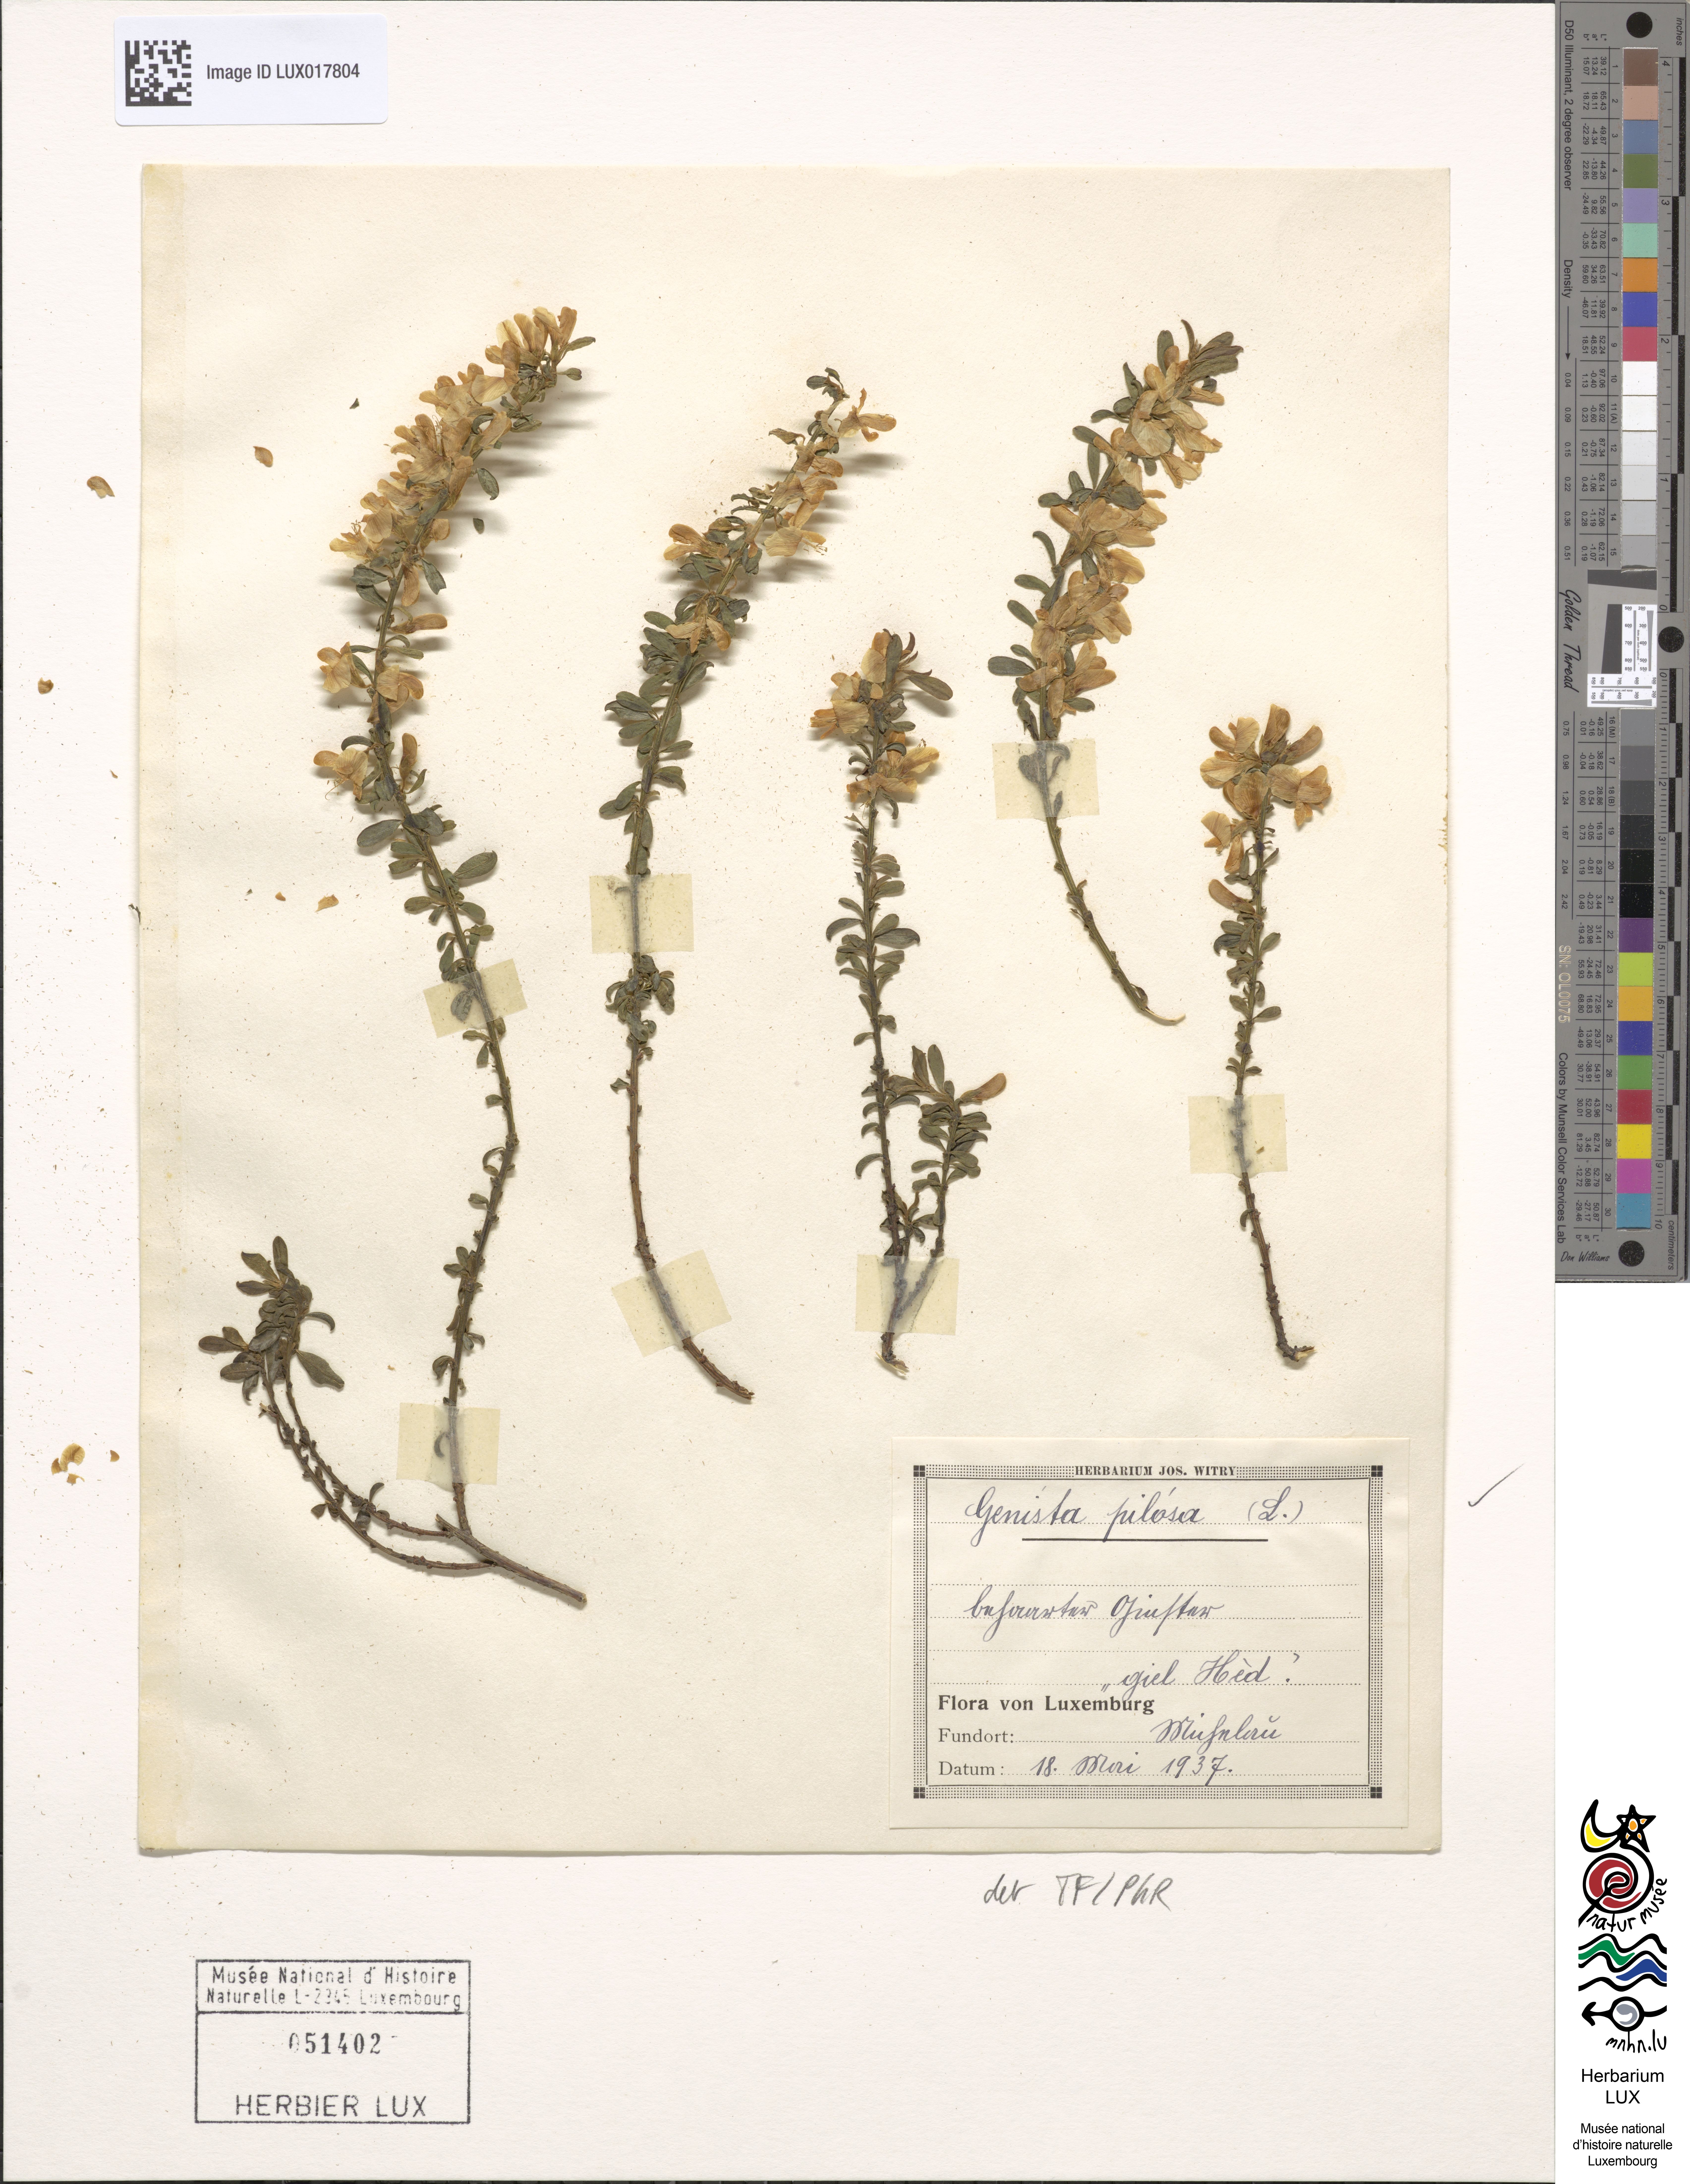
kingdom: Plantae
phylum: Tracheophyta
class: Magnoliopsida
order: Fabales
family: Fabaceae
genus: Genista
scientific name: Genista pilosa
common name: Hairy greenweed
